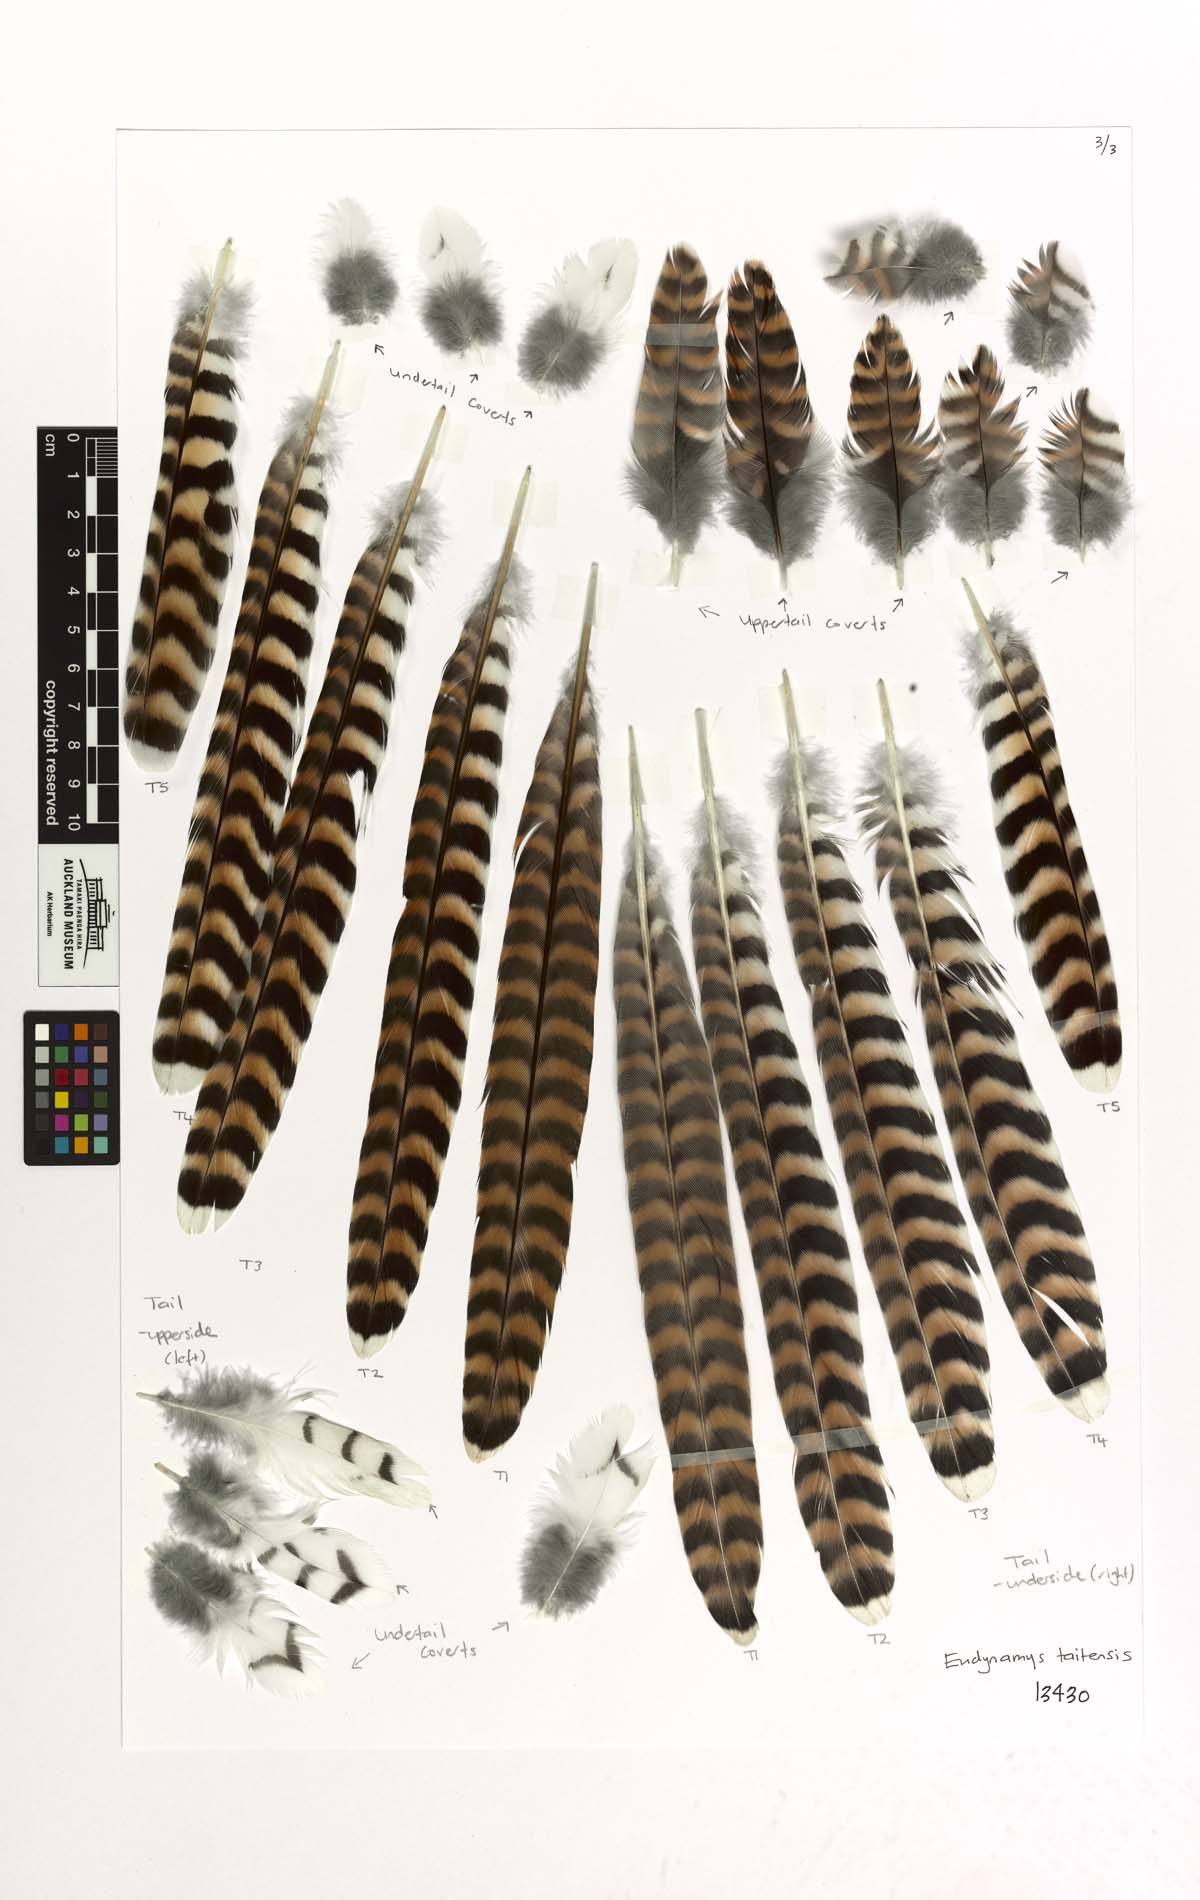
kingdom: Animalia
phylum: Chordata
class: Aves
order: Cuculiformes
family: Cuculidae
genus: Urodynamis
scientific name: Urodynamis taitensis
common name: Long-tailed koel
